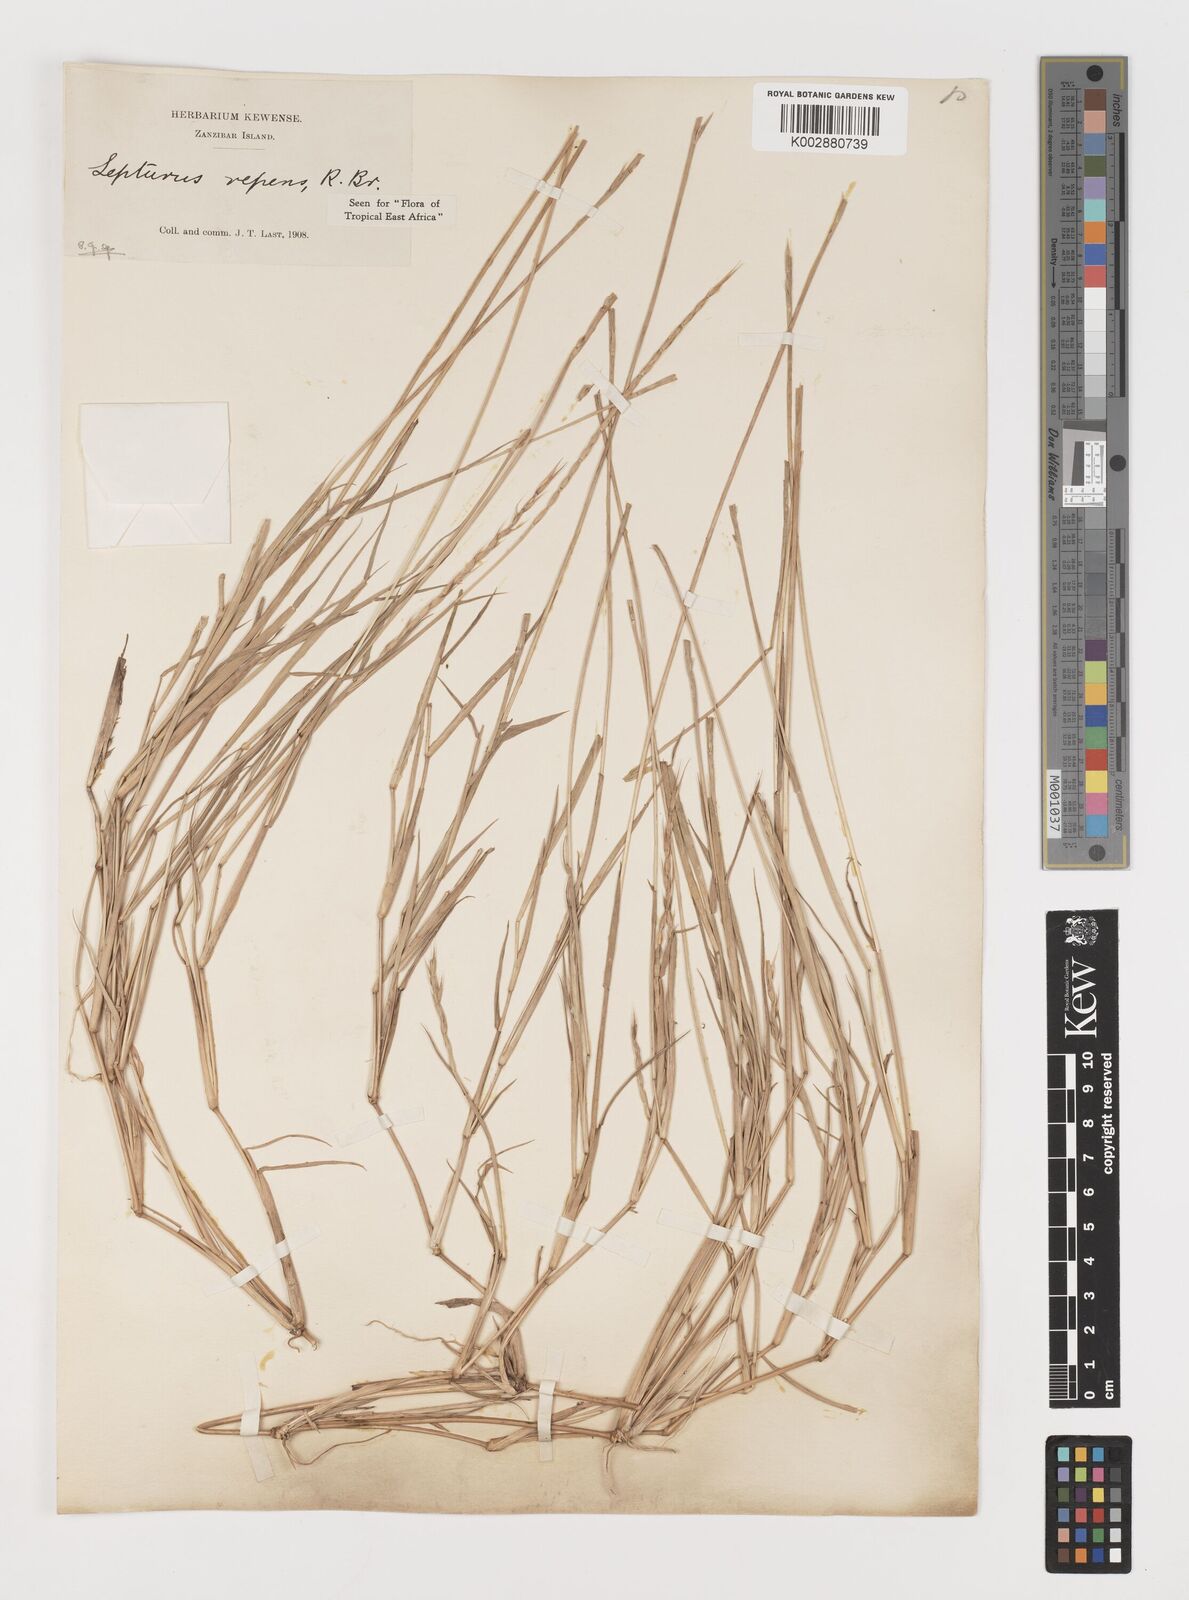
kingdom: Plantae
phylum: Tracheophyta
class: Liliopsida
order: Poales
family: Poaceae
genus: Lepturus
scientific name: Lepturus repens
